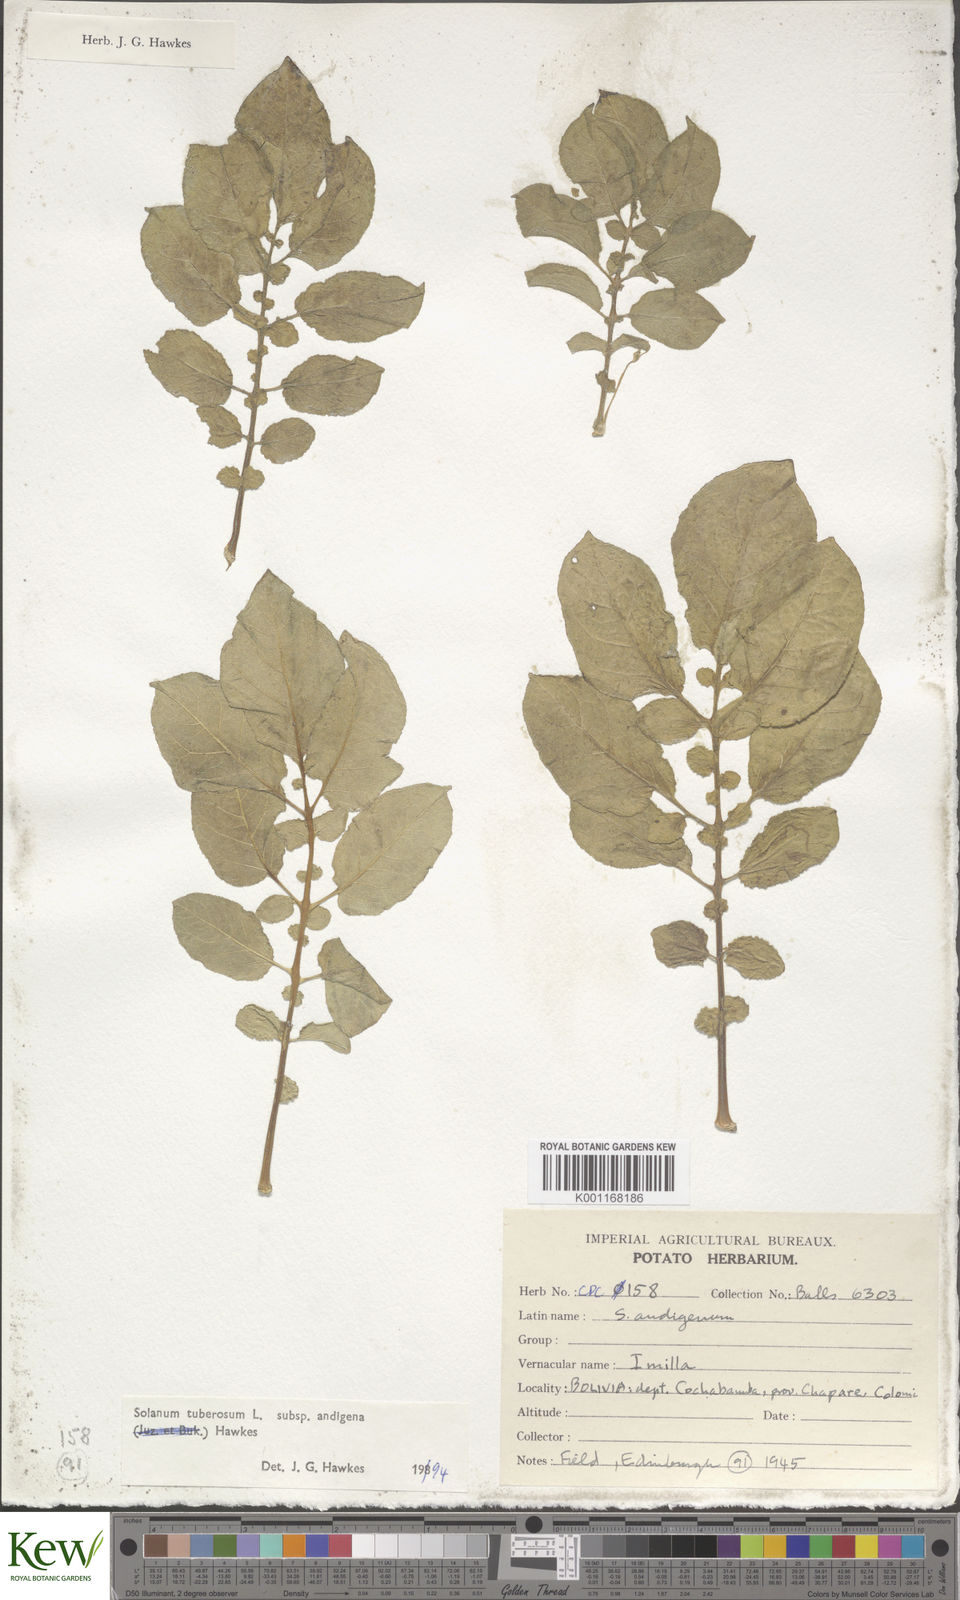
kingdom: Plantae
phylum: Tracheophyta
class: Magnoliopsida
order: Solanales
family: Solanaceae
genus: Solanum
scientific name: Solanum tuberosum
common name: Potato
